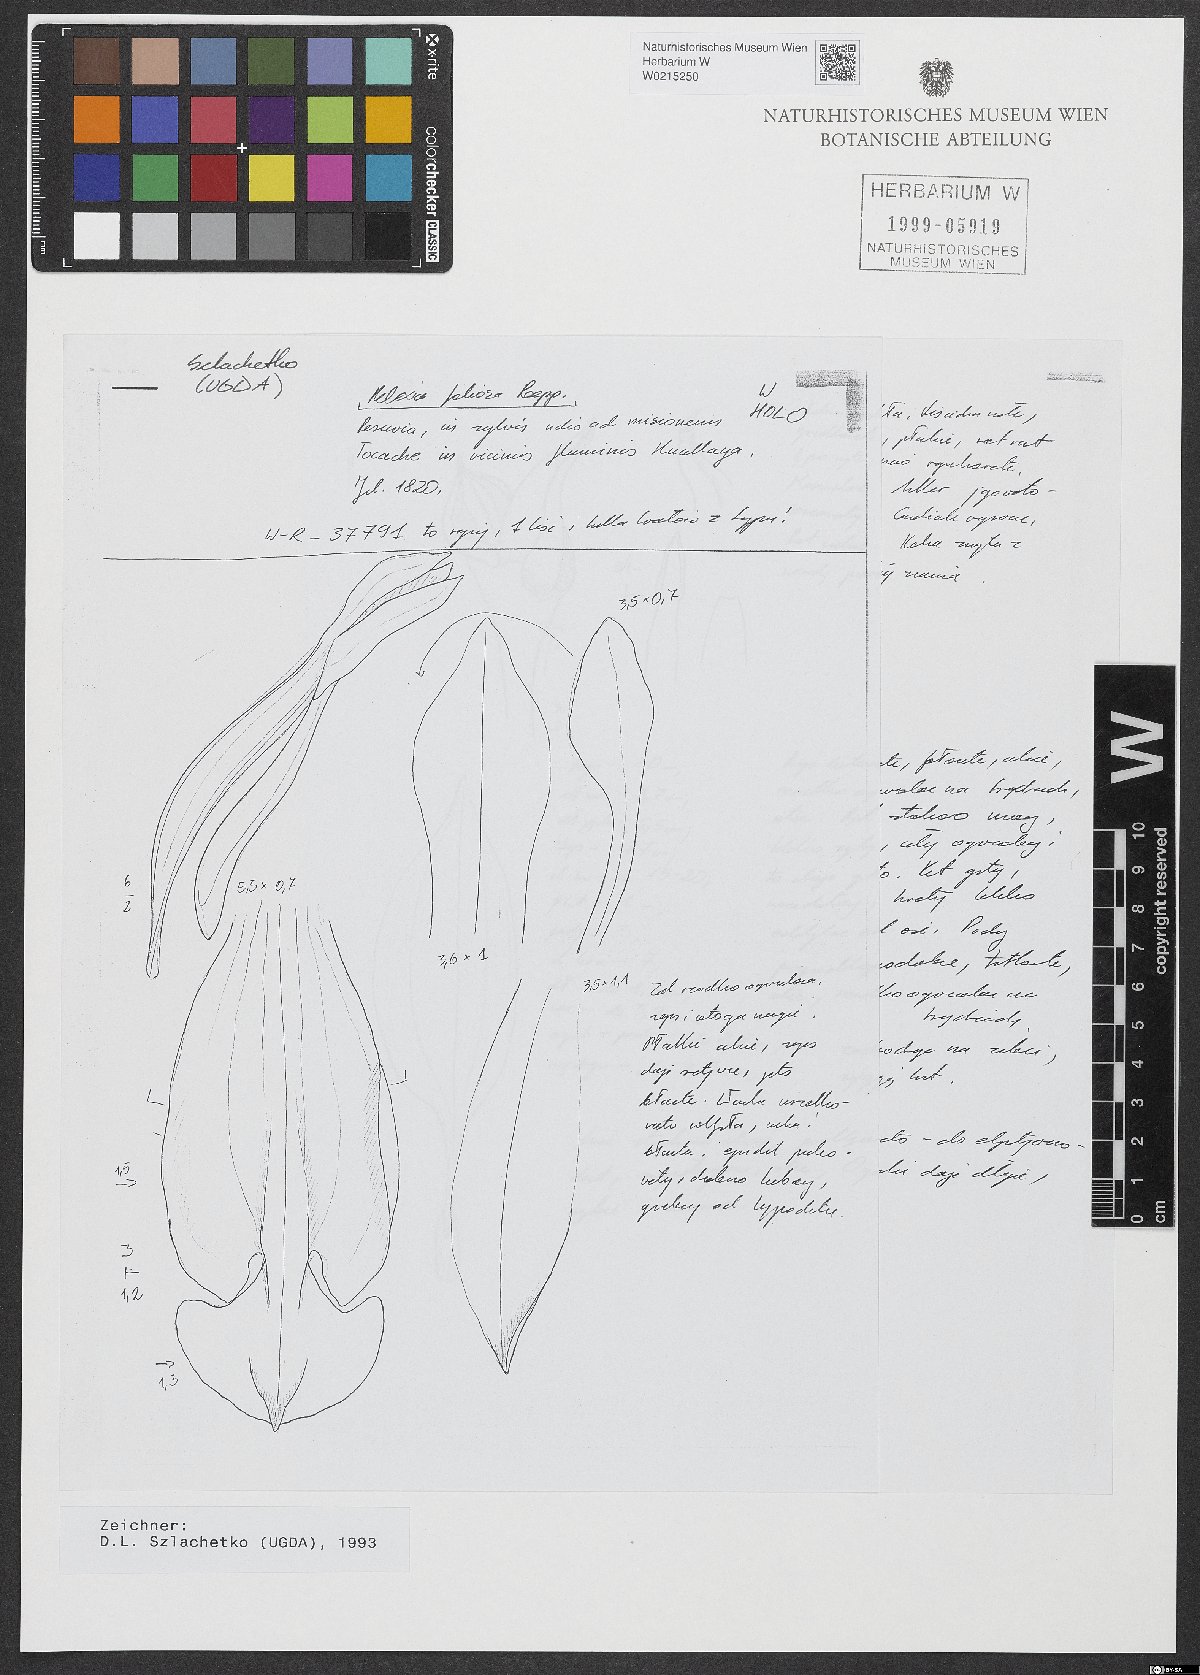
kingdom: Plantae
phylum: Tracheophyta
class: Liliopsida
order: Asparagales
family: Orchidaceae
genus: Aspidogyne
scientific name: Aspidogyne foliosa
